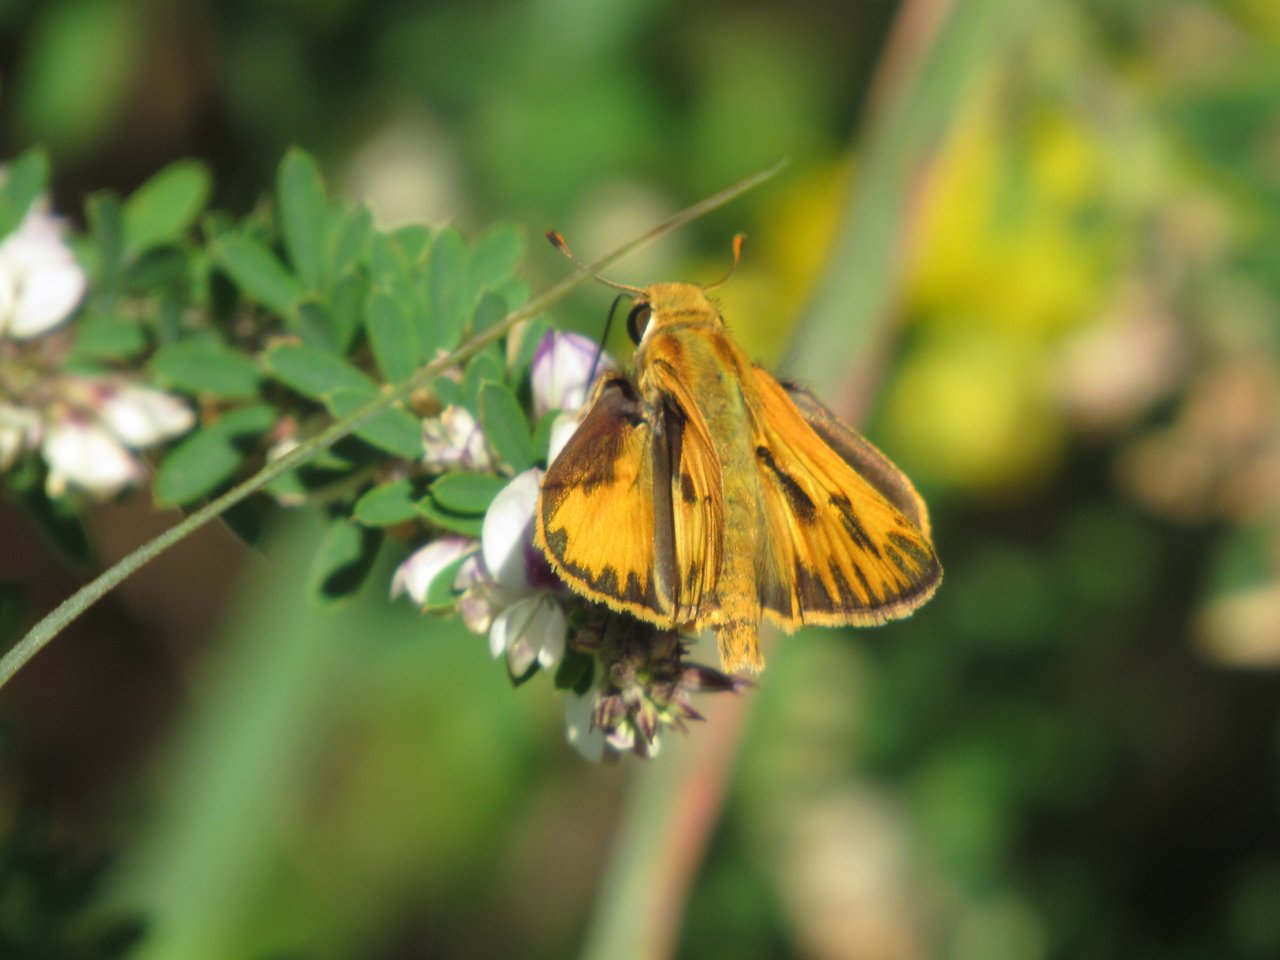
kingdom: Animalia
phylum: Arthropoda
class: Insecta
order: Lepidoptera
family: Hesperiidae
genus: Hylephila
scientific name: Hylephila phyleus
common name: Fiery Skipper
